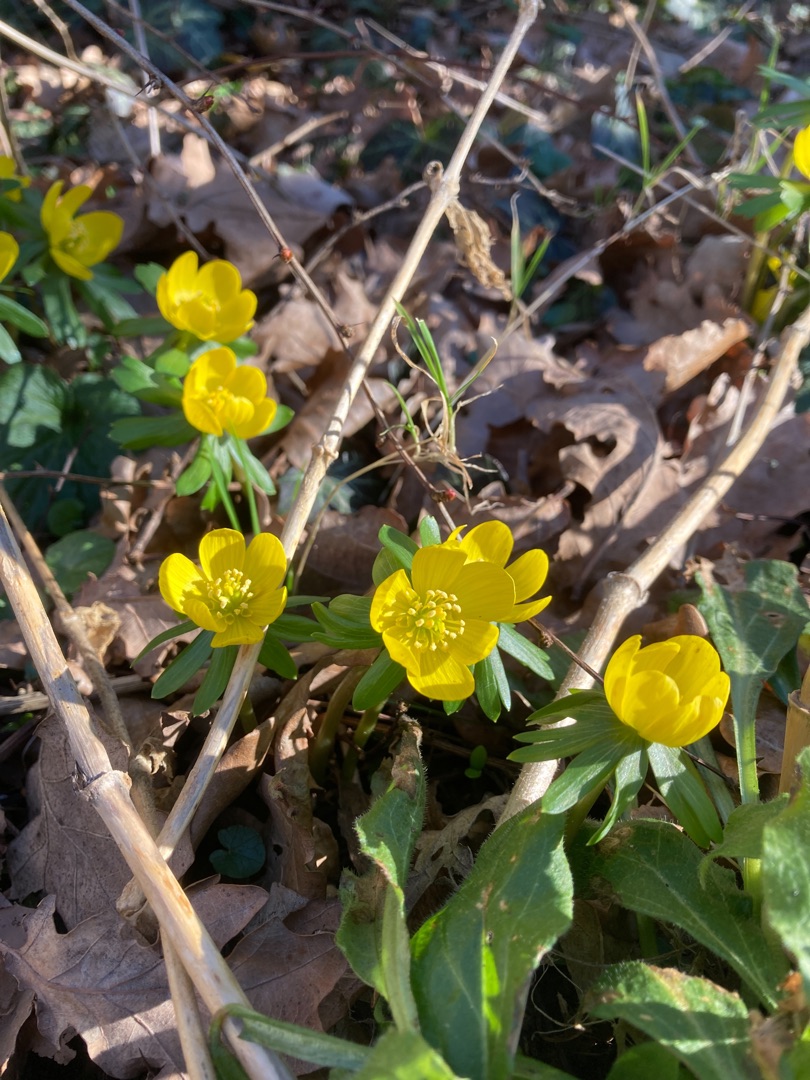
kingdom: Plantae
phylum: Tracheophyta
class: Magnoliopsida
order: Ranunculales
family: Ranunculaceae
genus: Eranthis
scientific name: Eranthis hyemalis
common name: Erantis
